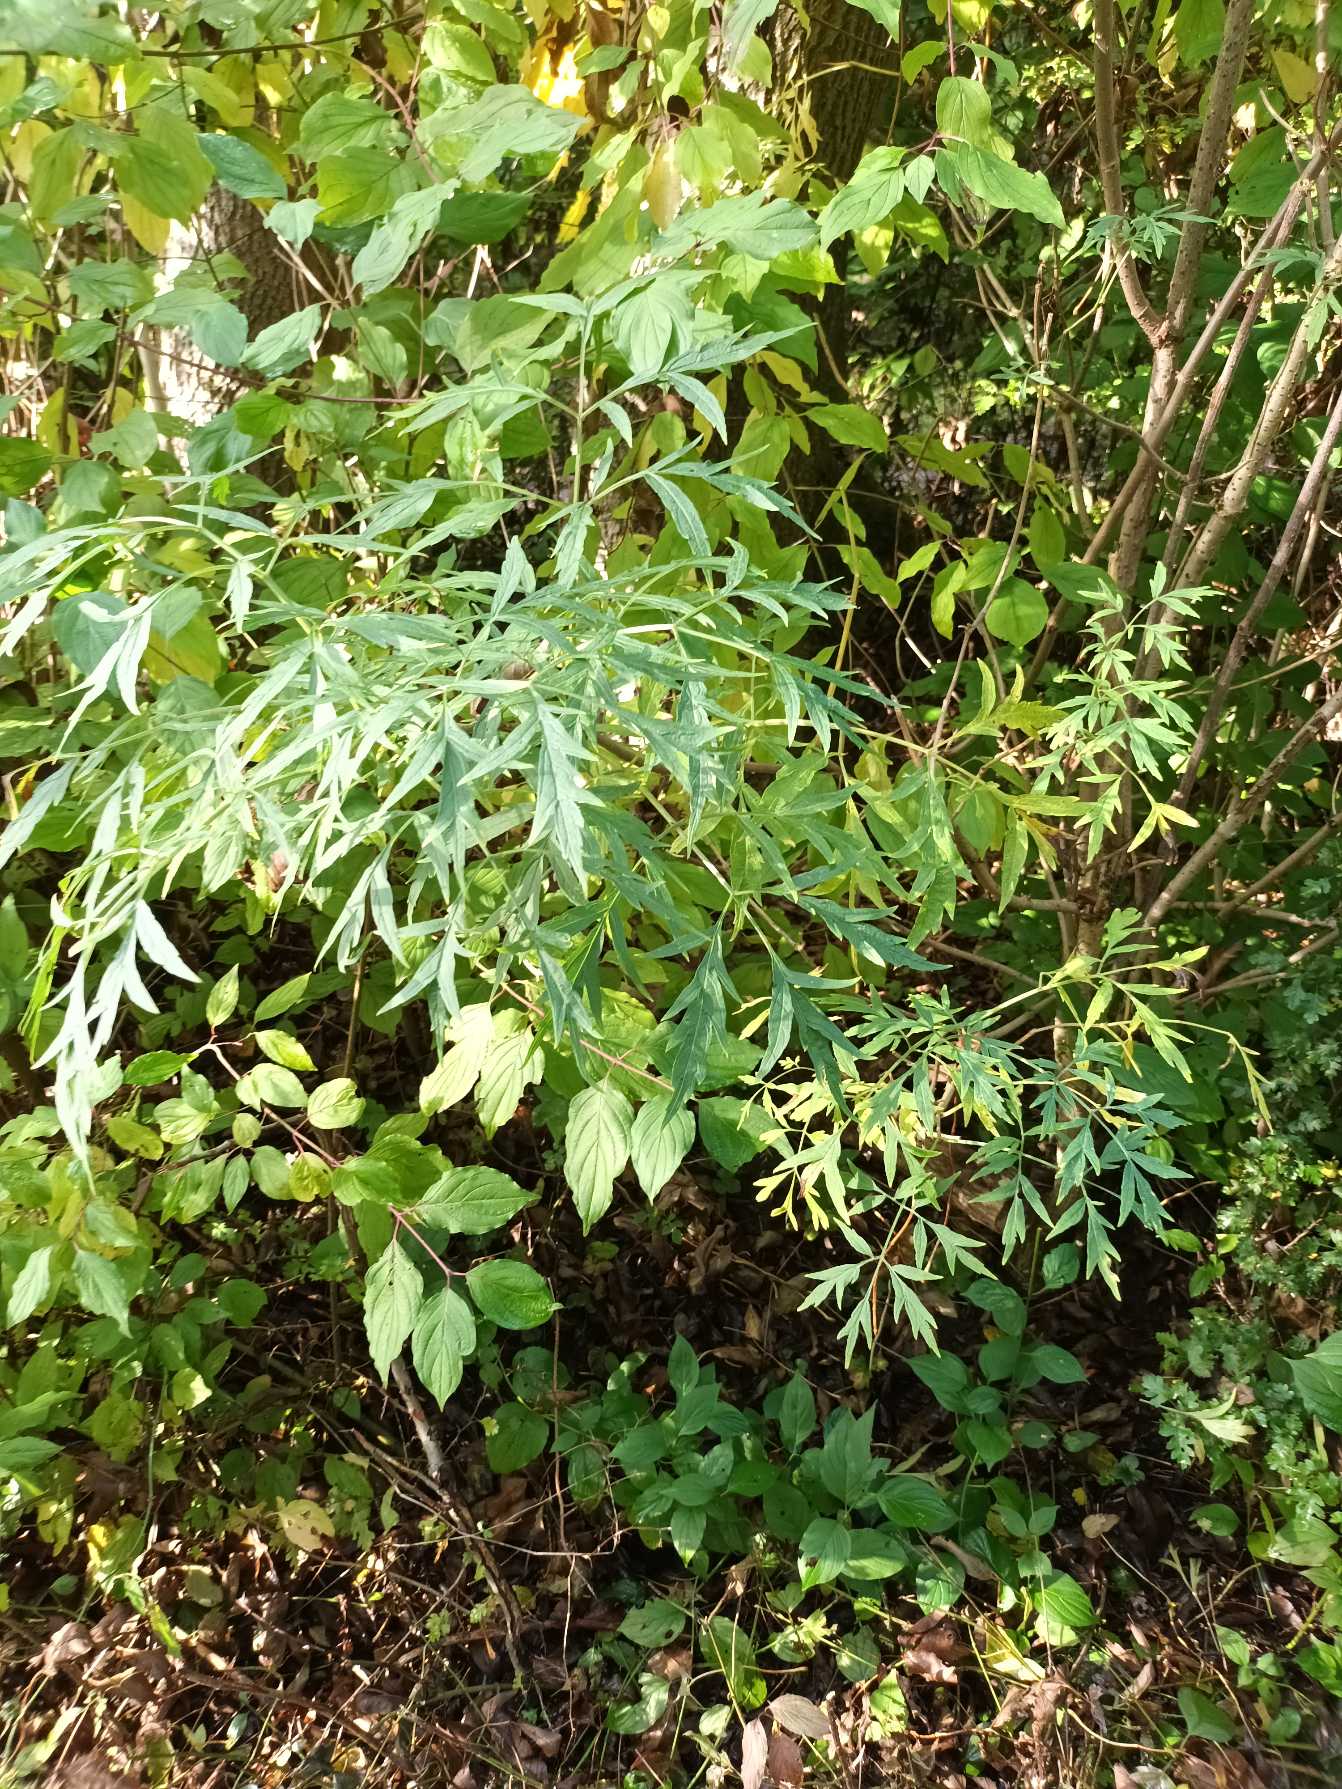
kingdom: Plantae
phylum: Tracheophyta
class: Magnoliopsida
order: Dipsacales
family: Viburnaceae
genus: Sambucus
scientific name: Sambucus nigra
